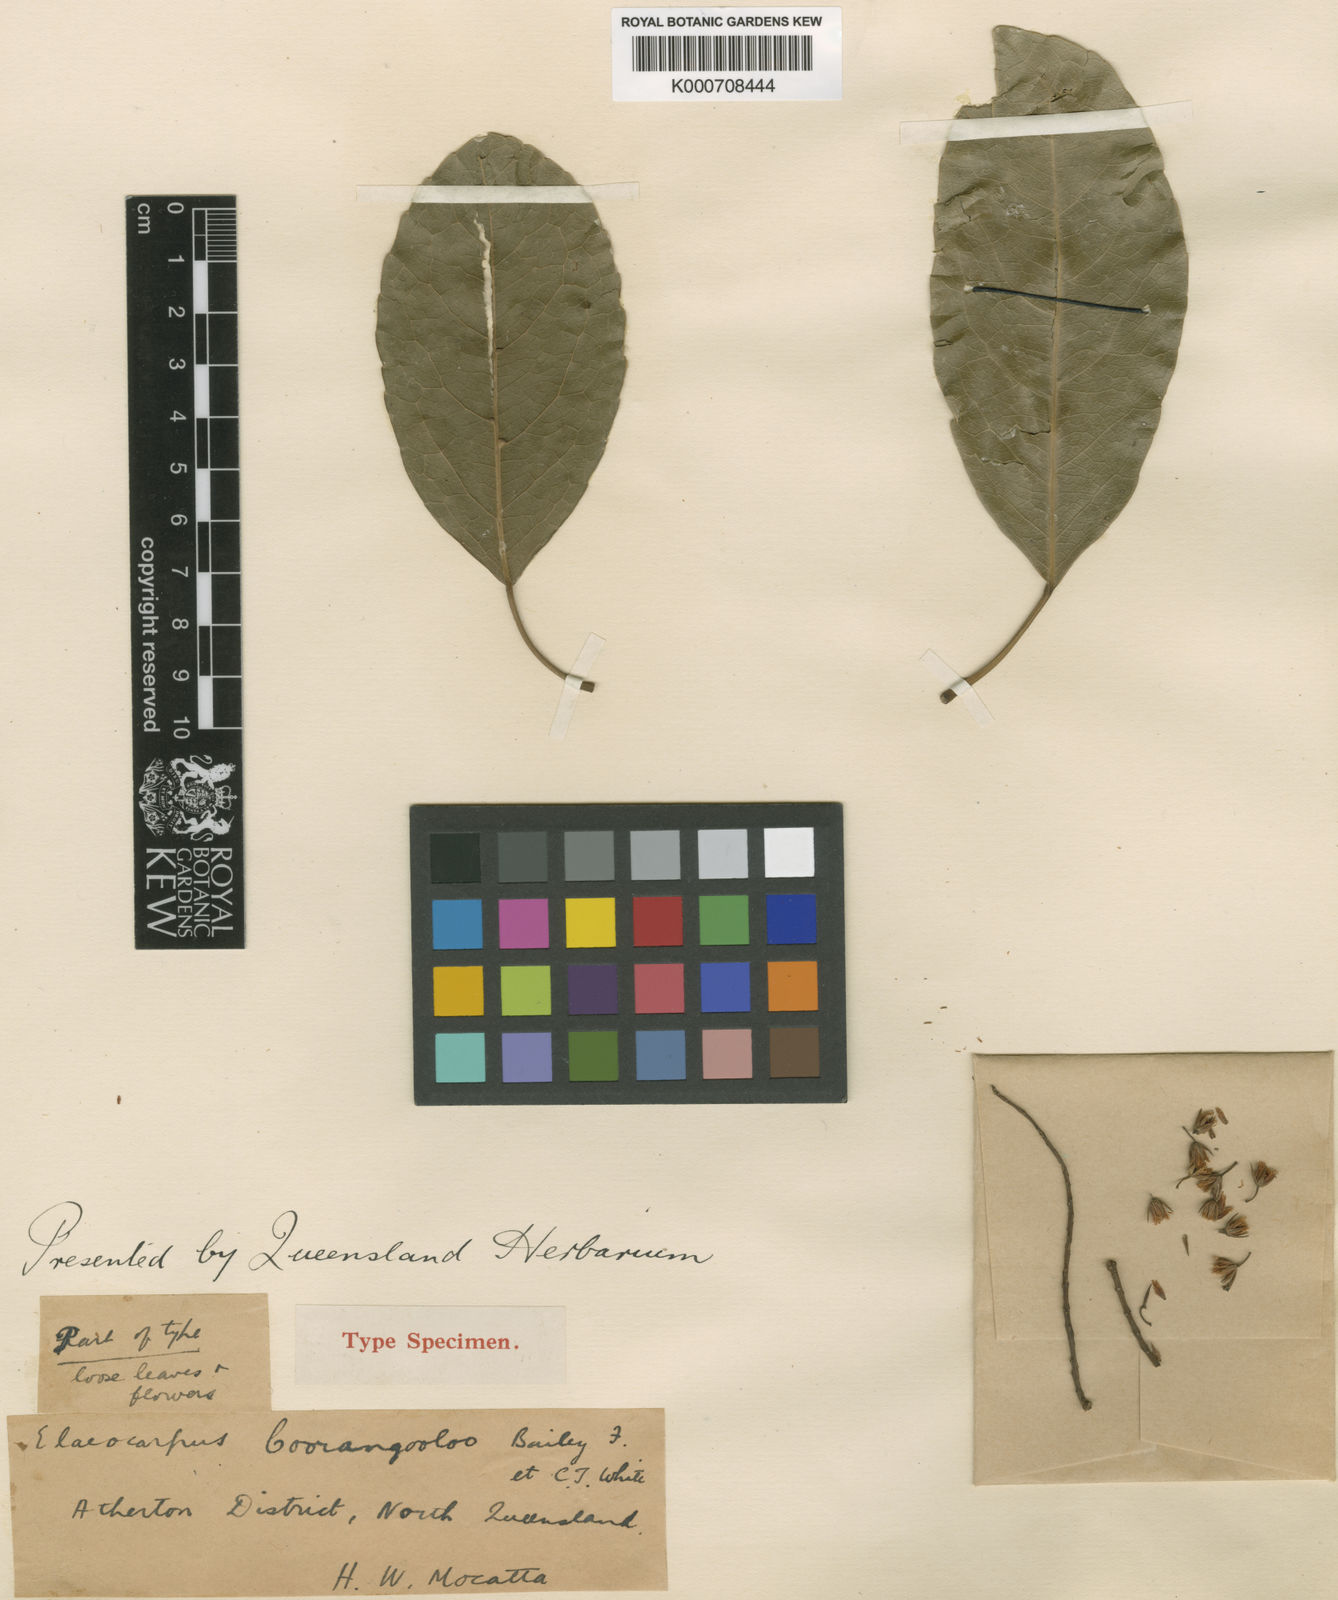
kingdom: Plantae
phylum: Tracheophyta
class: Magnoliopsida
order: Oxalidales
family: Elaeocarpaceae
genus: Elaeocarpus
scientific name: Elaeocarpus coorangooloo
